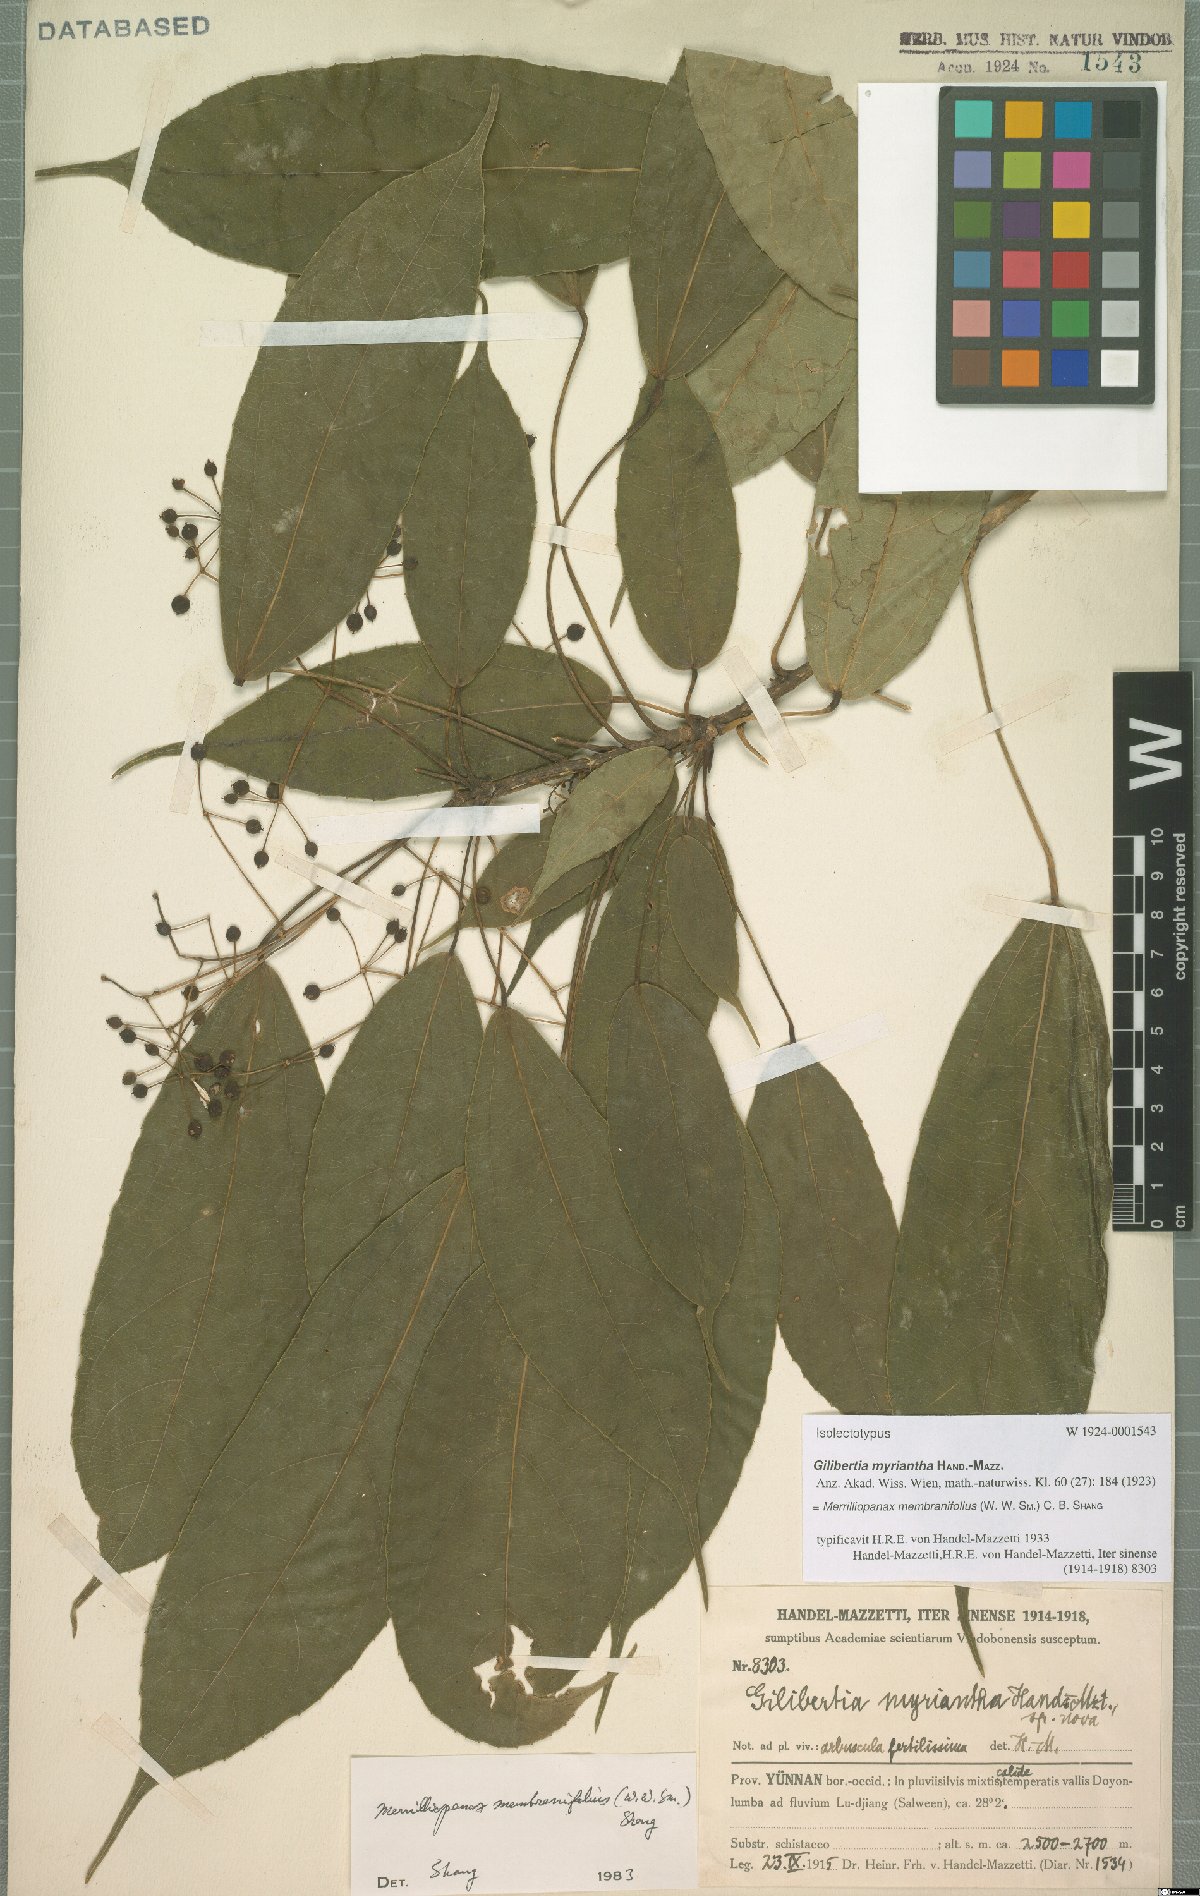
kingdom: Plantae
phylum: Tracheophyta
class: Magnoliopsida
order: Apiales
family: Araliaceae
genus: Merrilliopanax
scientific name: Merrilliopanax membranifolius
